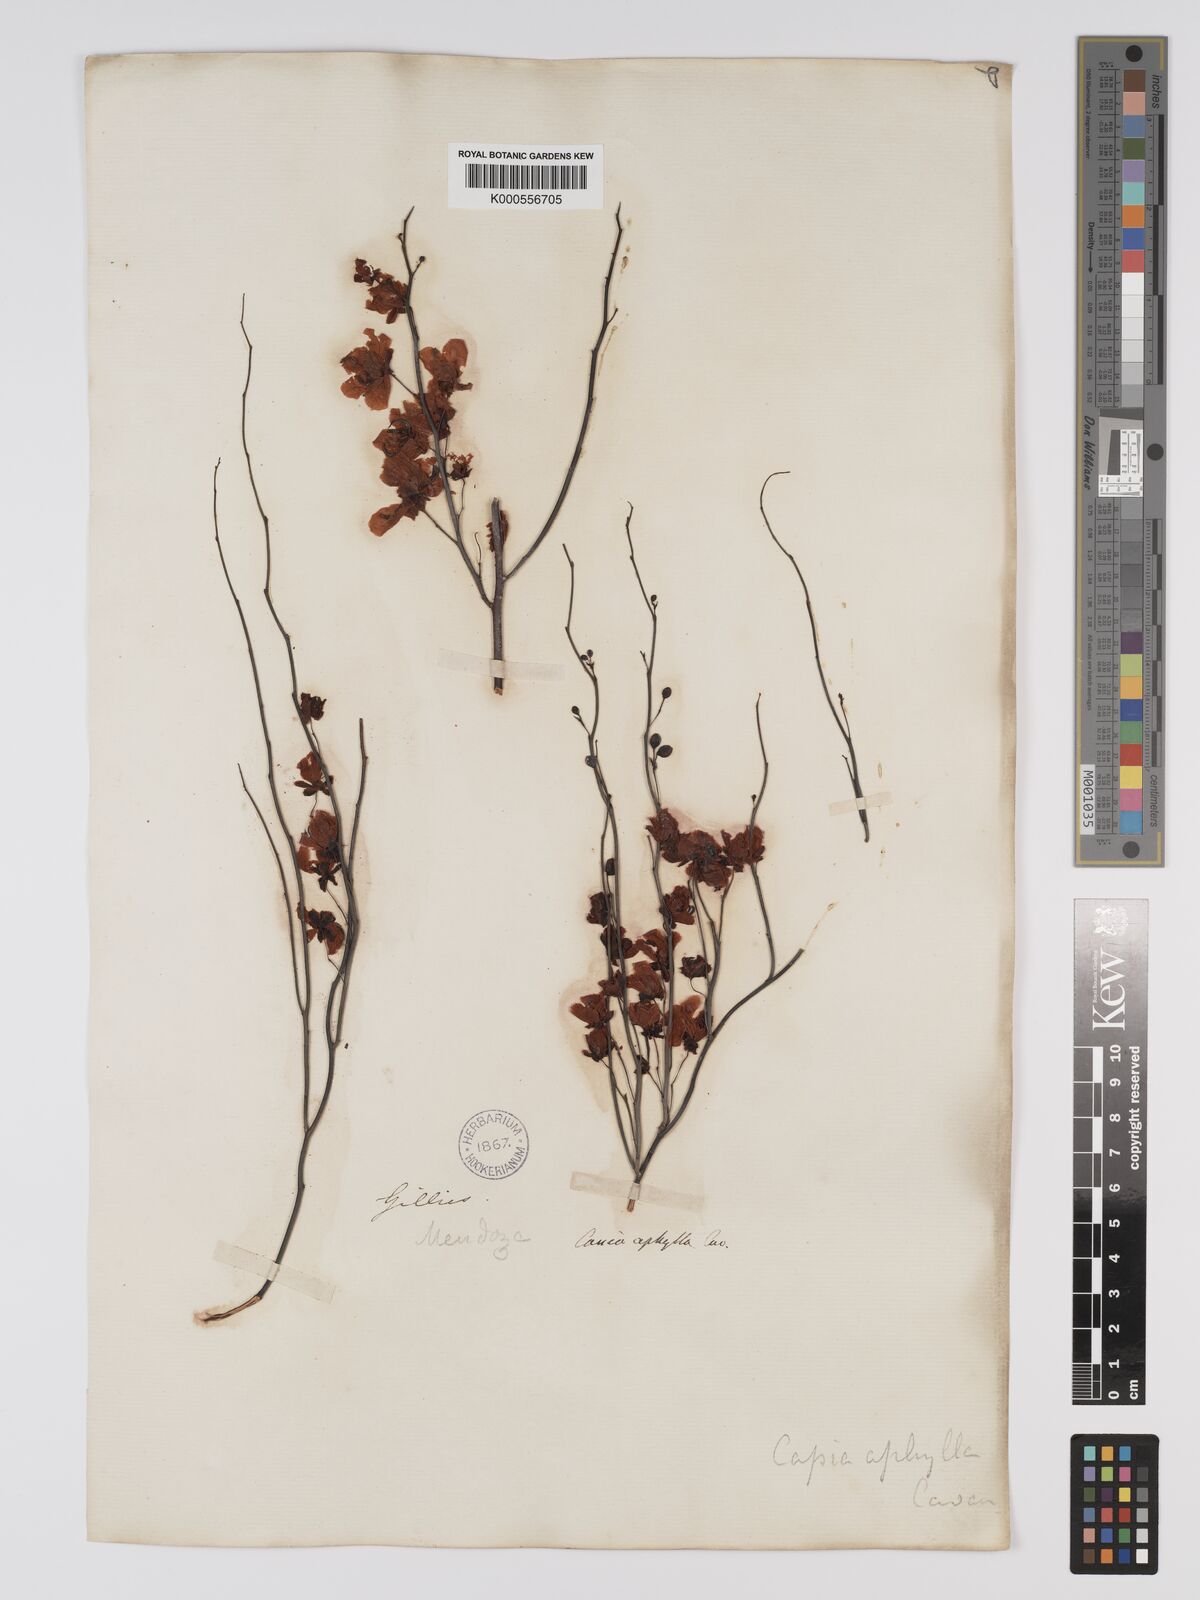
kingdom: Plantae
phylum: Tracheophyta
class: Magnoliopsida
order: Fabales
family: Fabaceae
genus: Senna
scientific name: Senna aphylla
